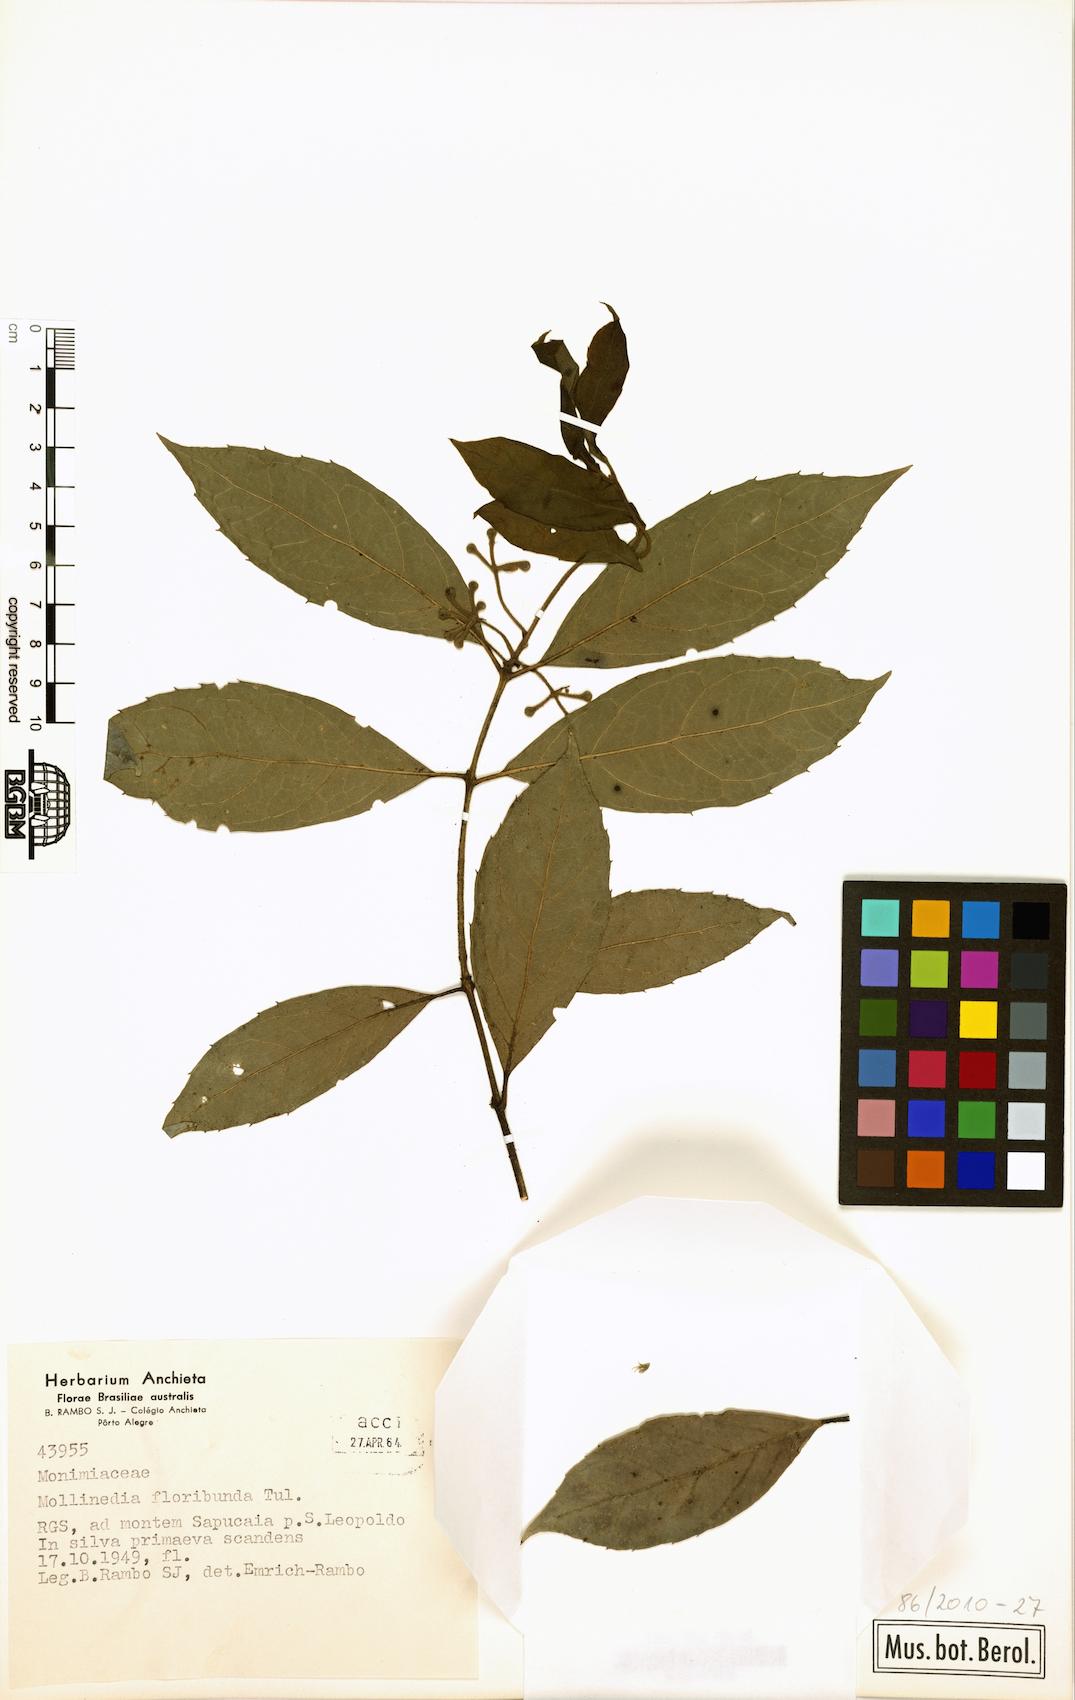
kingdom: Plantae
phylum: Tracheophyta
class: Magnoliopsida
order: Laurales
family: Monimiaceae
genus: Mollinedia
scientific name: Mollinedia umbellata
